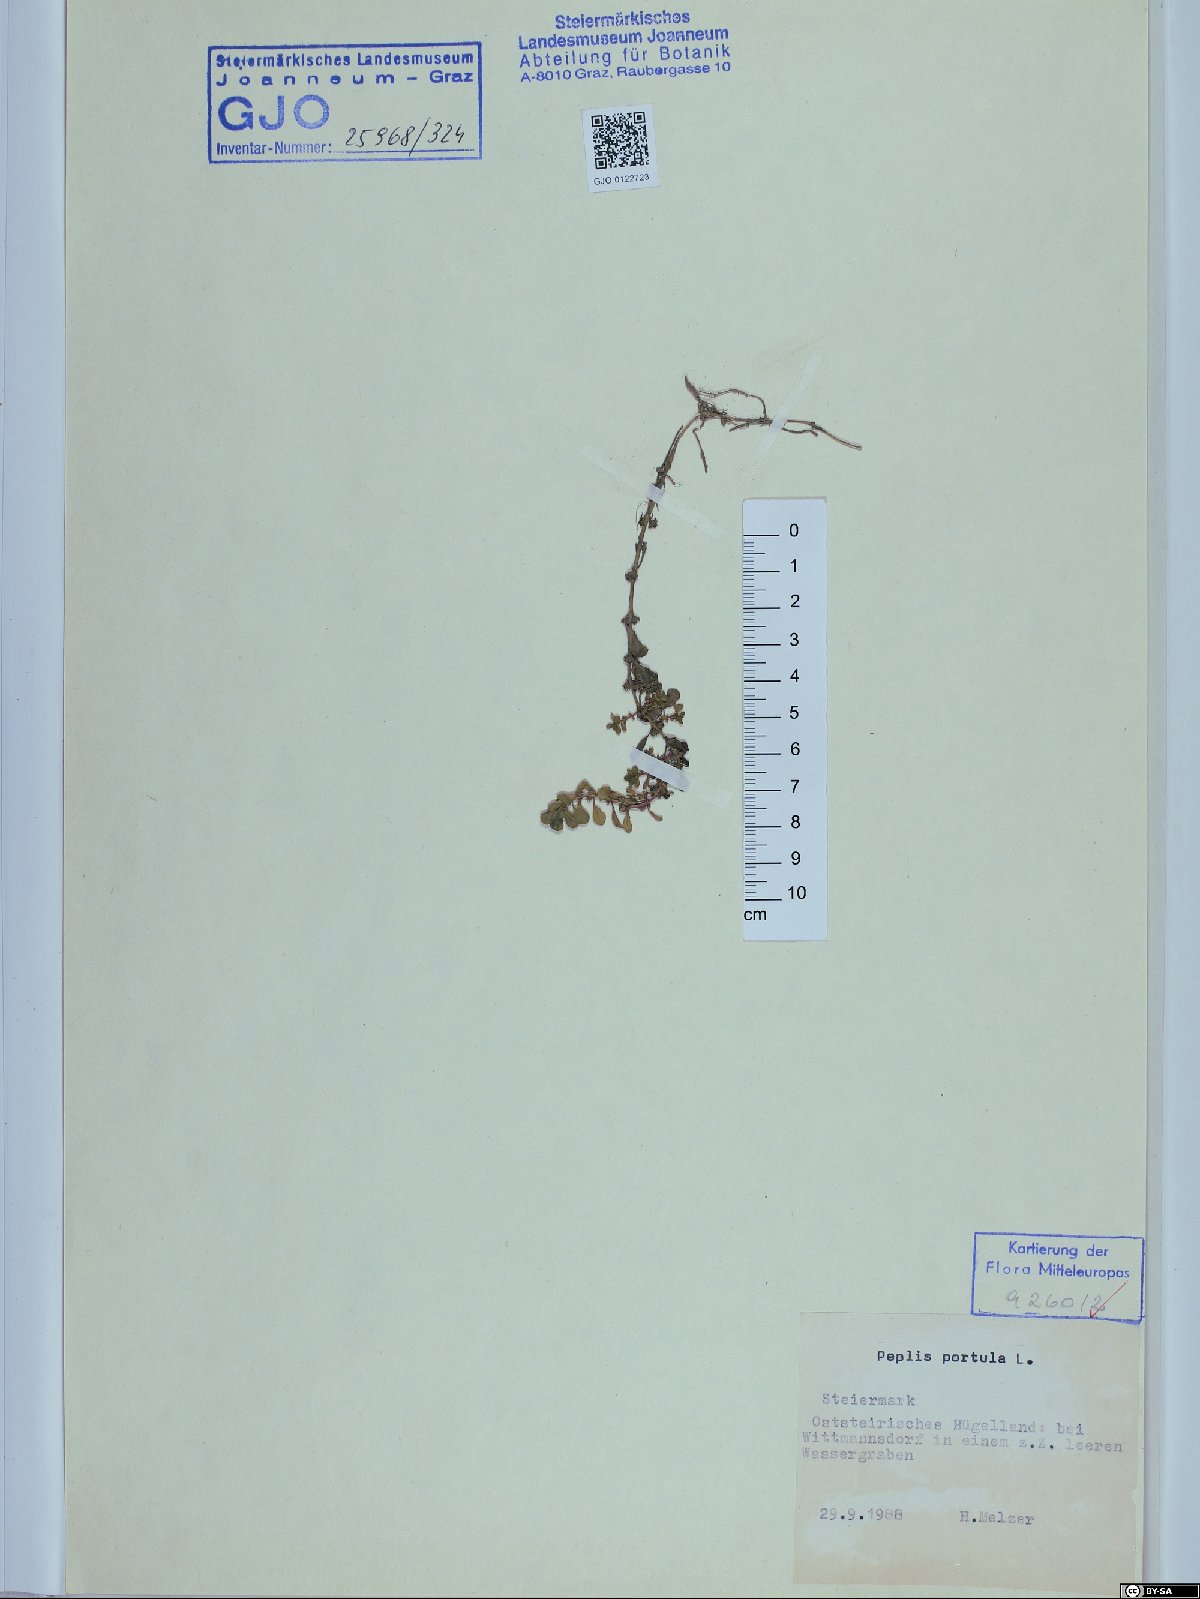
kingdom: Plantae
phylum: Tracheophyta
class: Magnoliopsida
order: Myrtales
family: Lythraceae
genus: Lythrum
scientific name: Lythrum portula
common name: Water purslane
